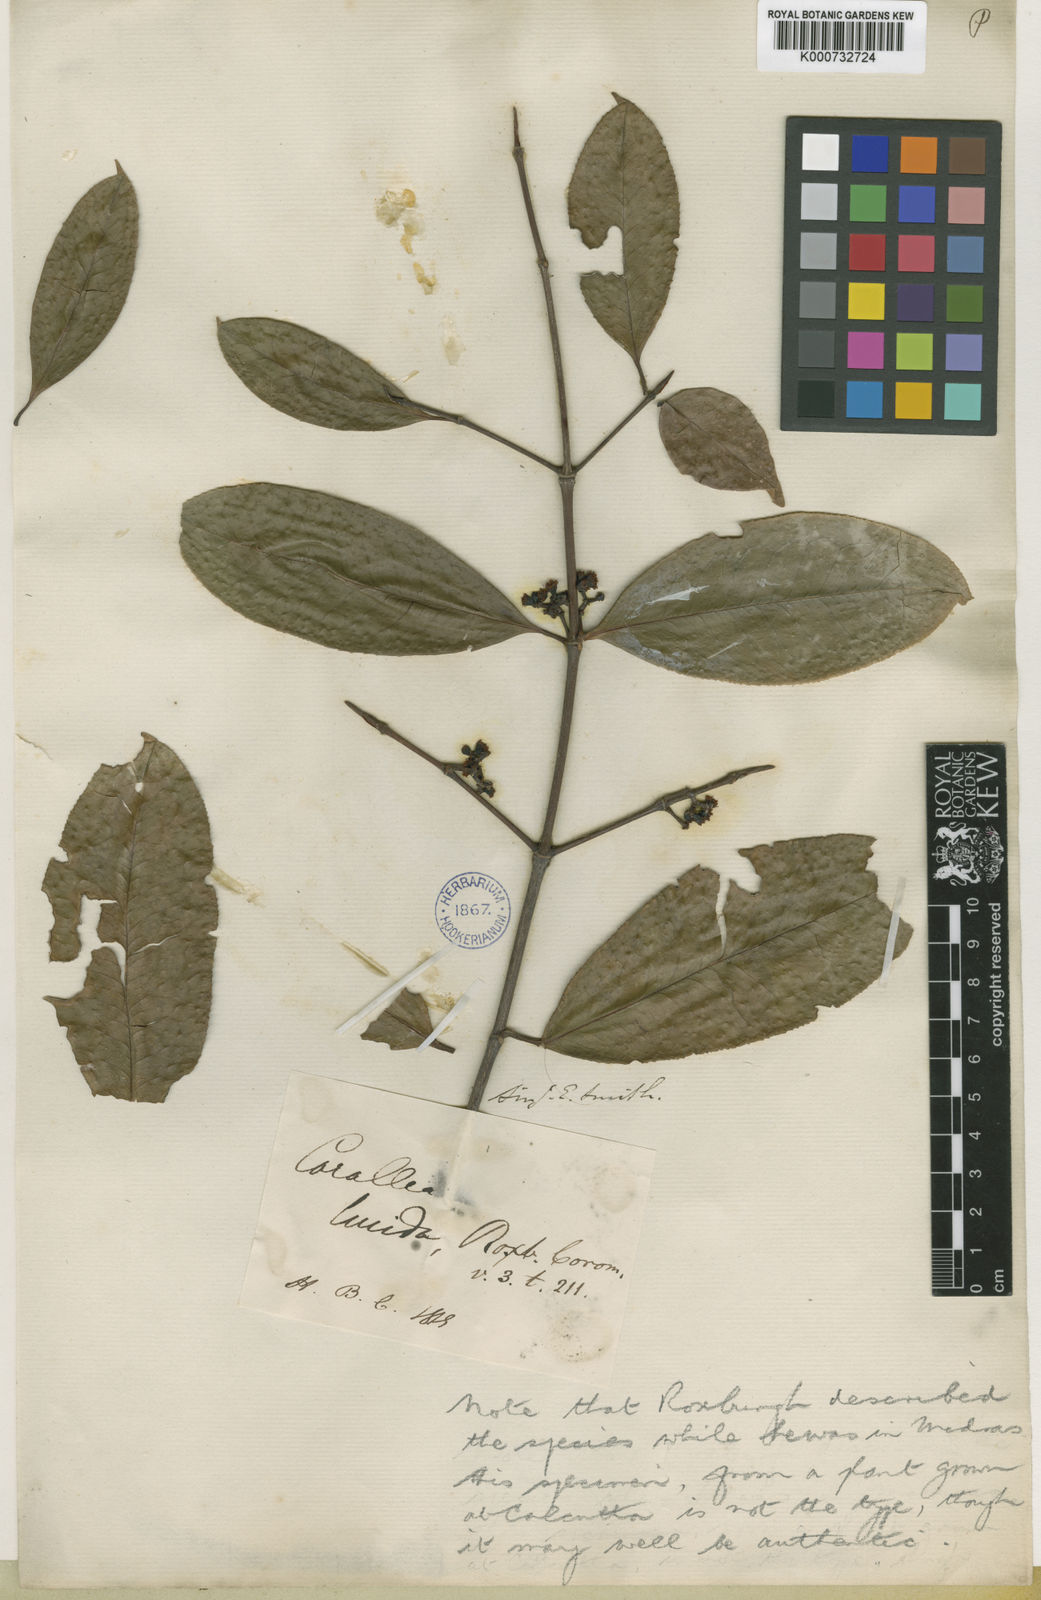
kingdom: Plantae
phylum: Tracheophyta
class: Magnoliopsida
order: Malpighiales
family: Rhizophoraceae
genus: Carallia
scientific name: Carallia brachiata
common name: Carallawood
